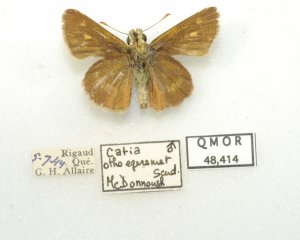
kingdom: Animalia
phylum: Arthropoda
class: Insecta
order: Lepidoptera
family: Hesperiidae
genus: Polites
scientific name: Polites egeremet
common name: Northern Broken-Dash
